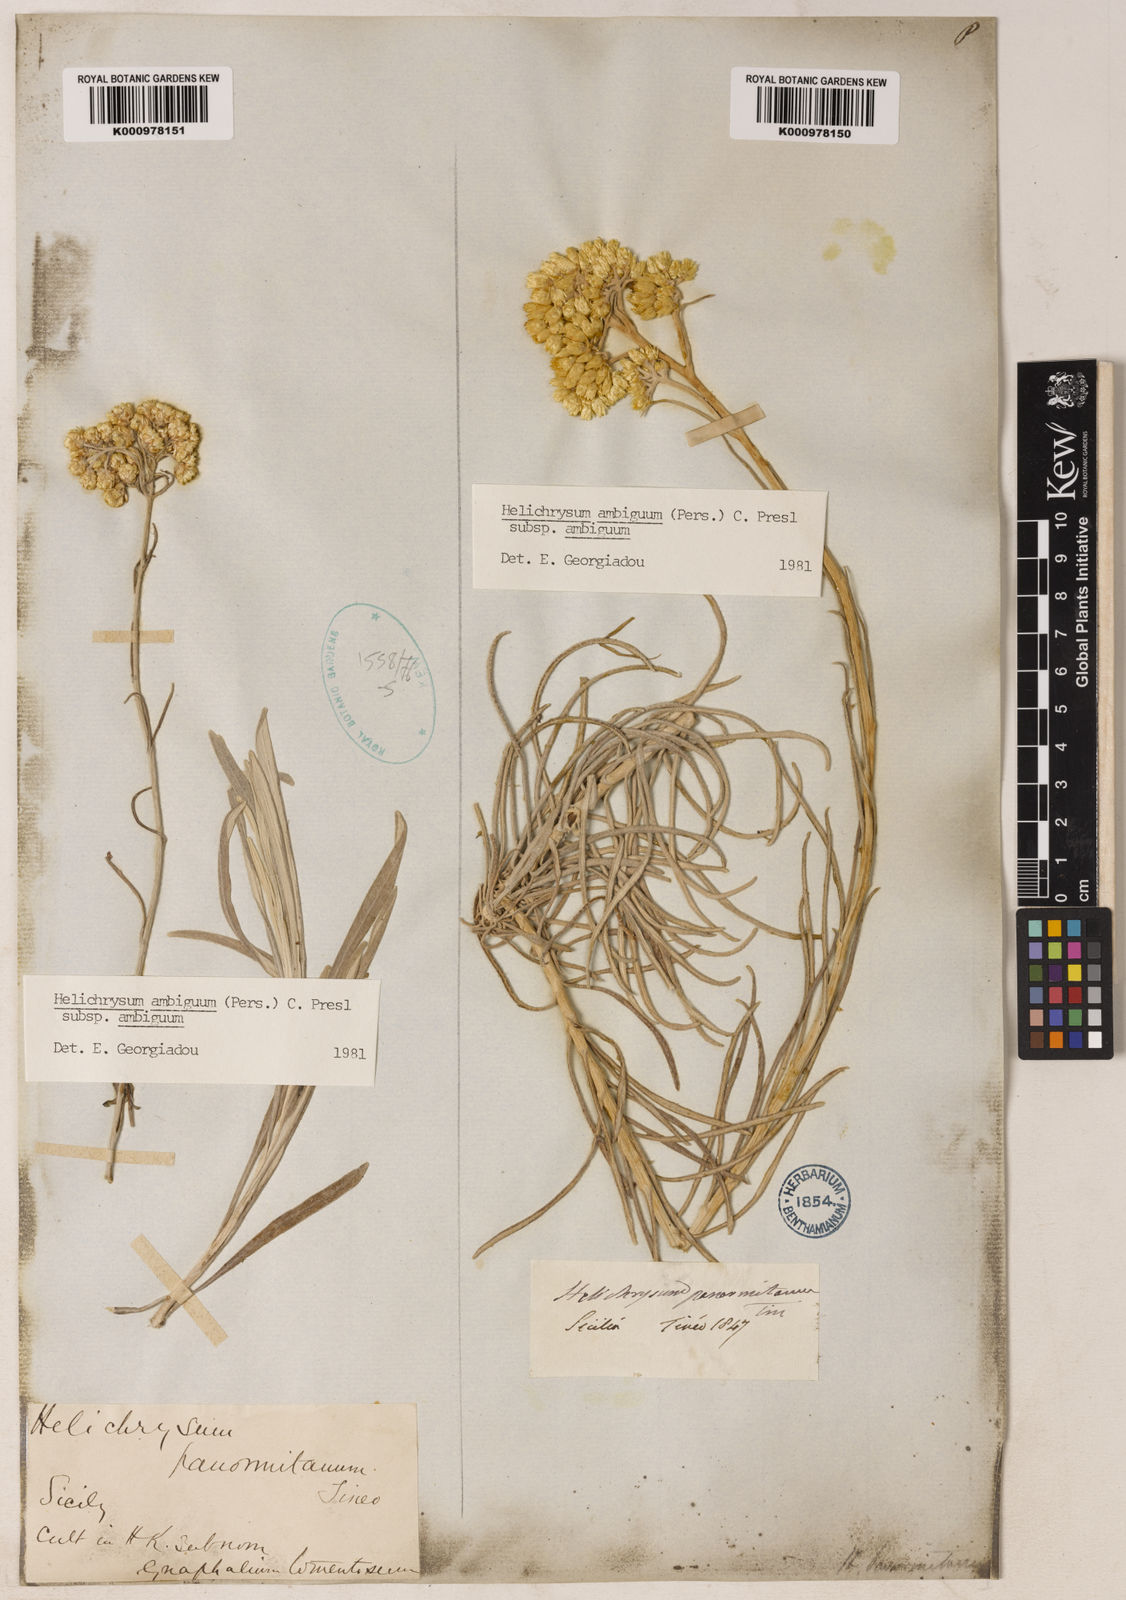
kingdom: Plantae
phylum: Tracheophyta
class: Magnoliopsida
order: Asterales
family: Asteraceae
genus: Leiocarpa
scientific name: Leiocarpa semicalva
